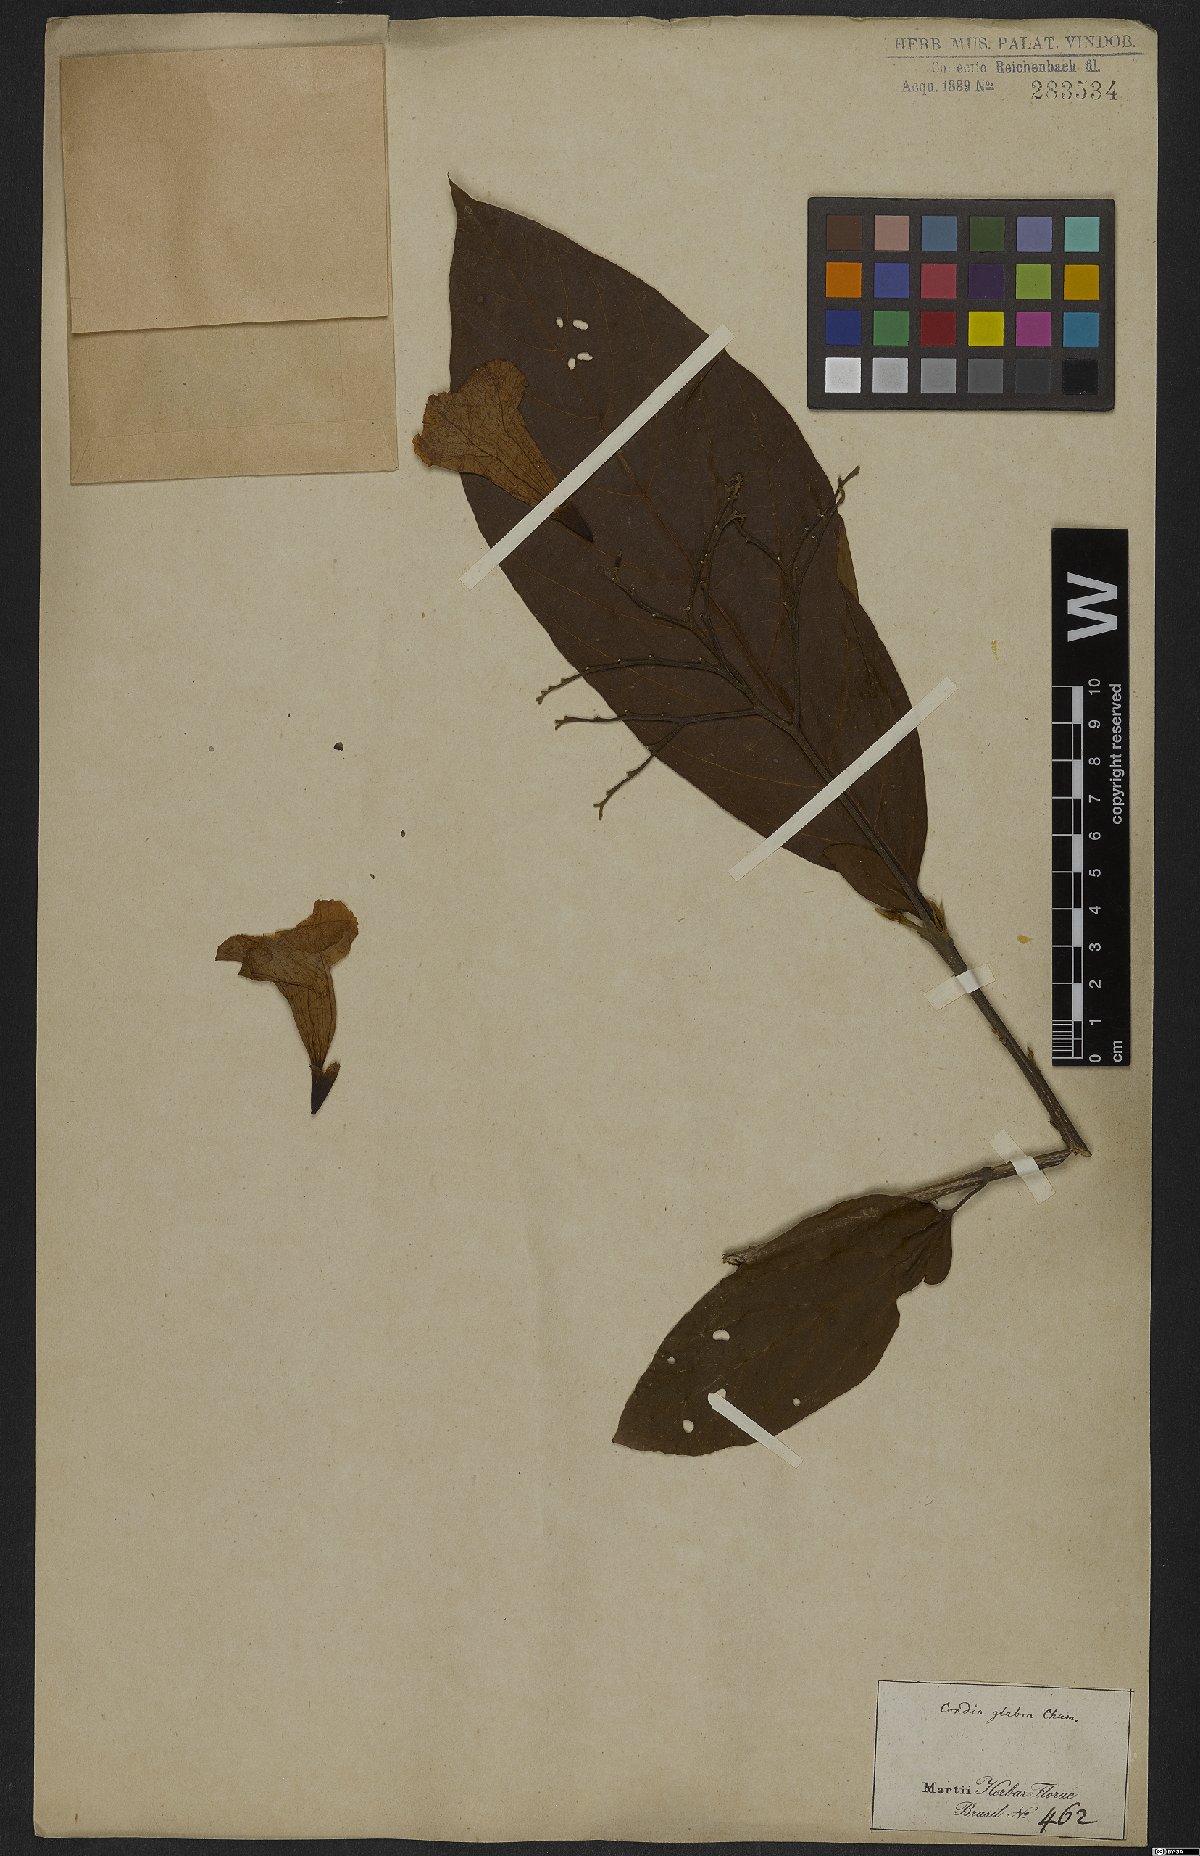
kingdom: Plantae
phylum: Tracheophyta
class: Magnoliopsida
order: Boraginales
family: Cordiaceae
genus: Cordia
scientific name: Cordia glabra
